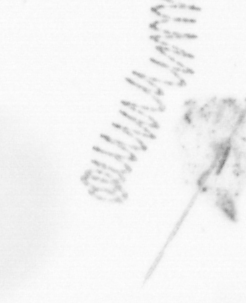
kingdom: Chromista
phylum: Ochrophyta
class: Bacillariophyceae
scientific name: Bacillariophyceae
